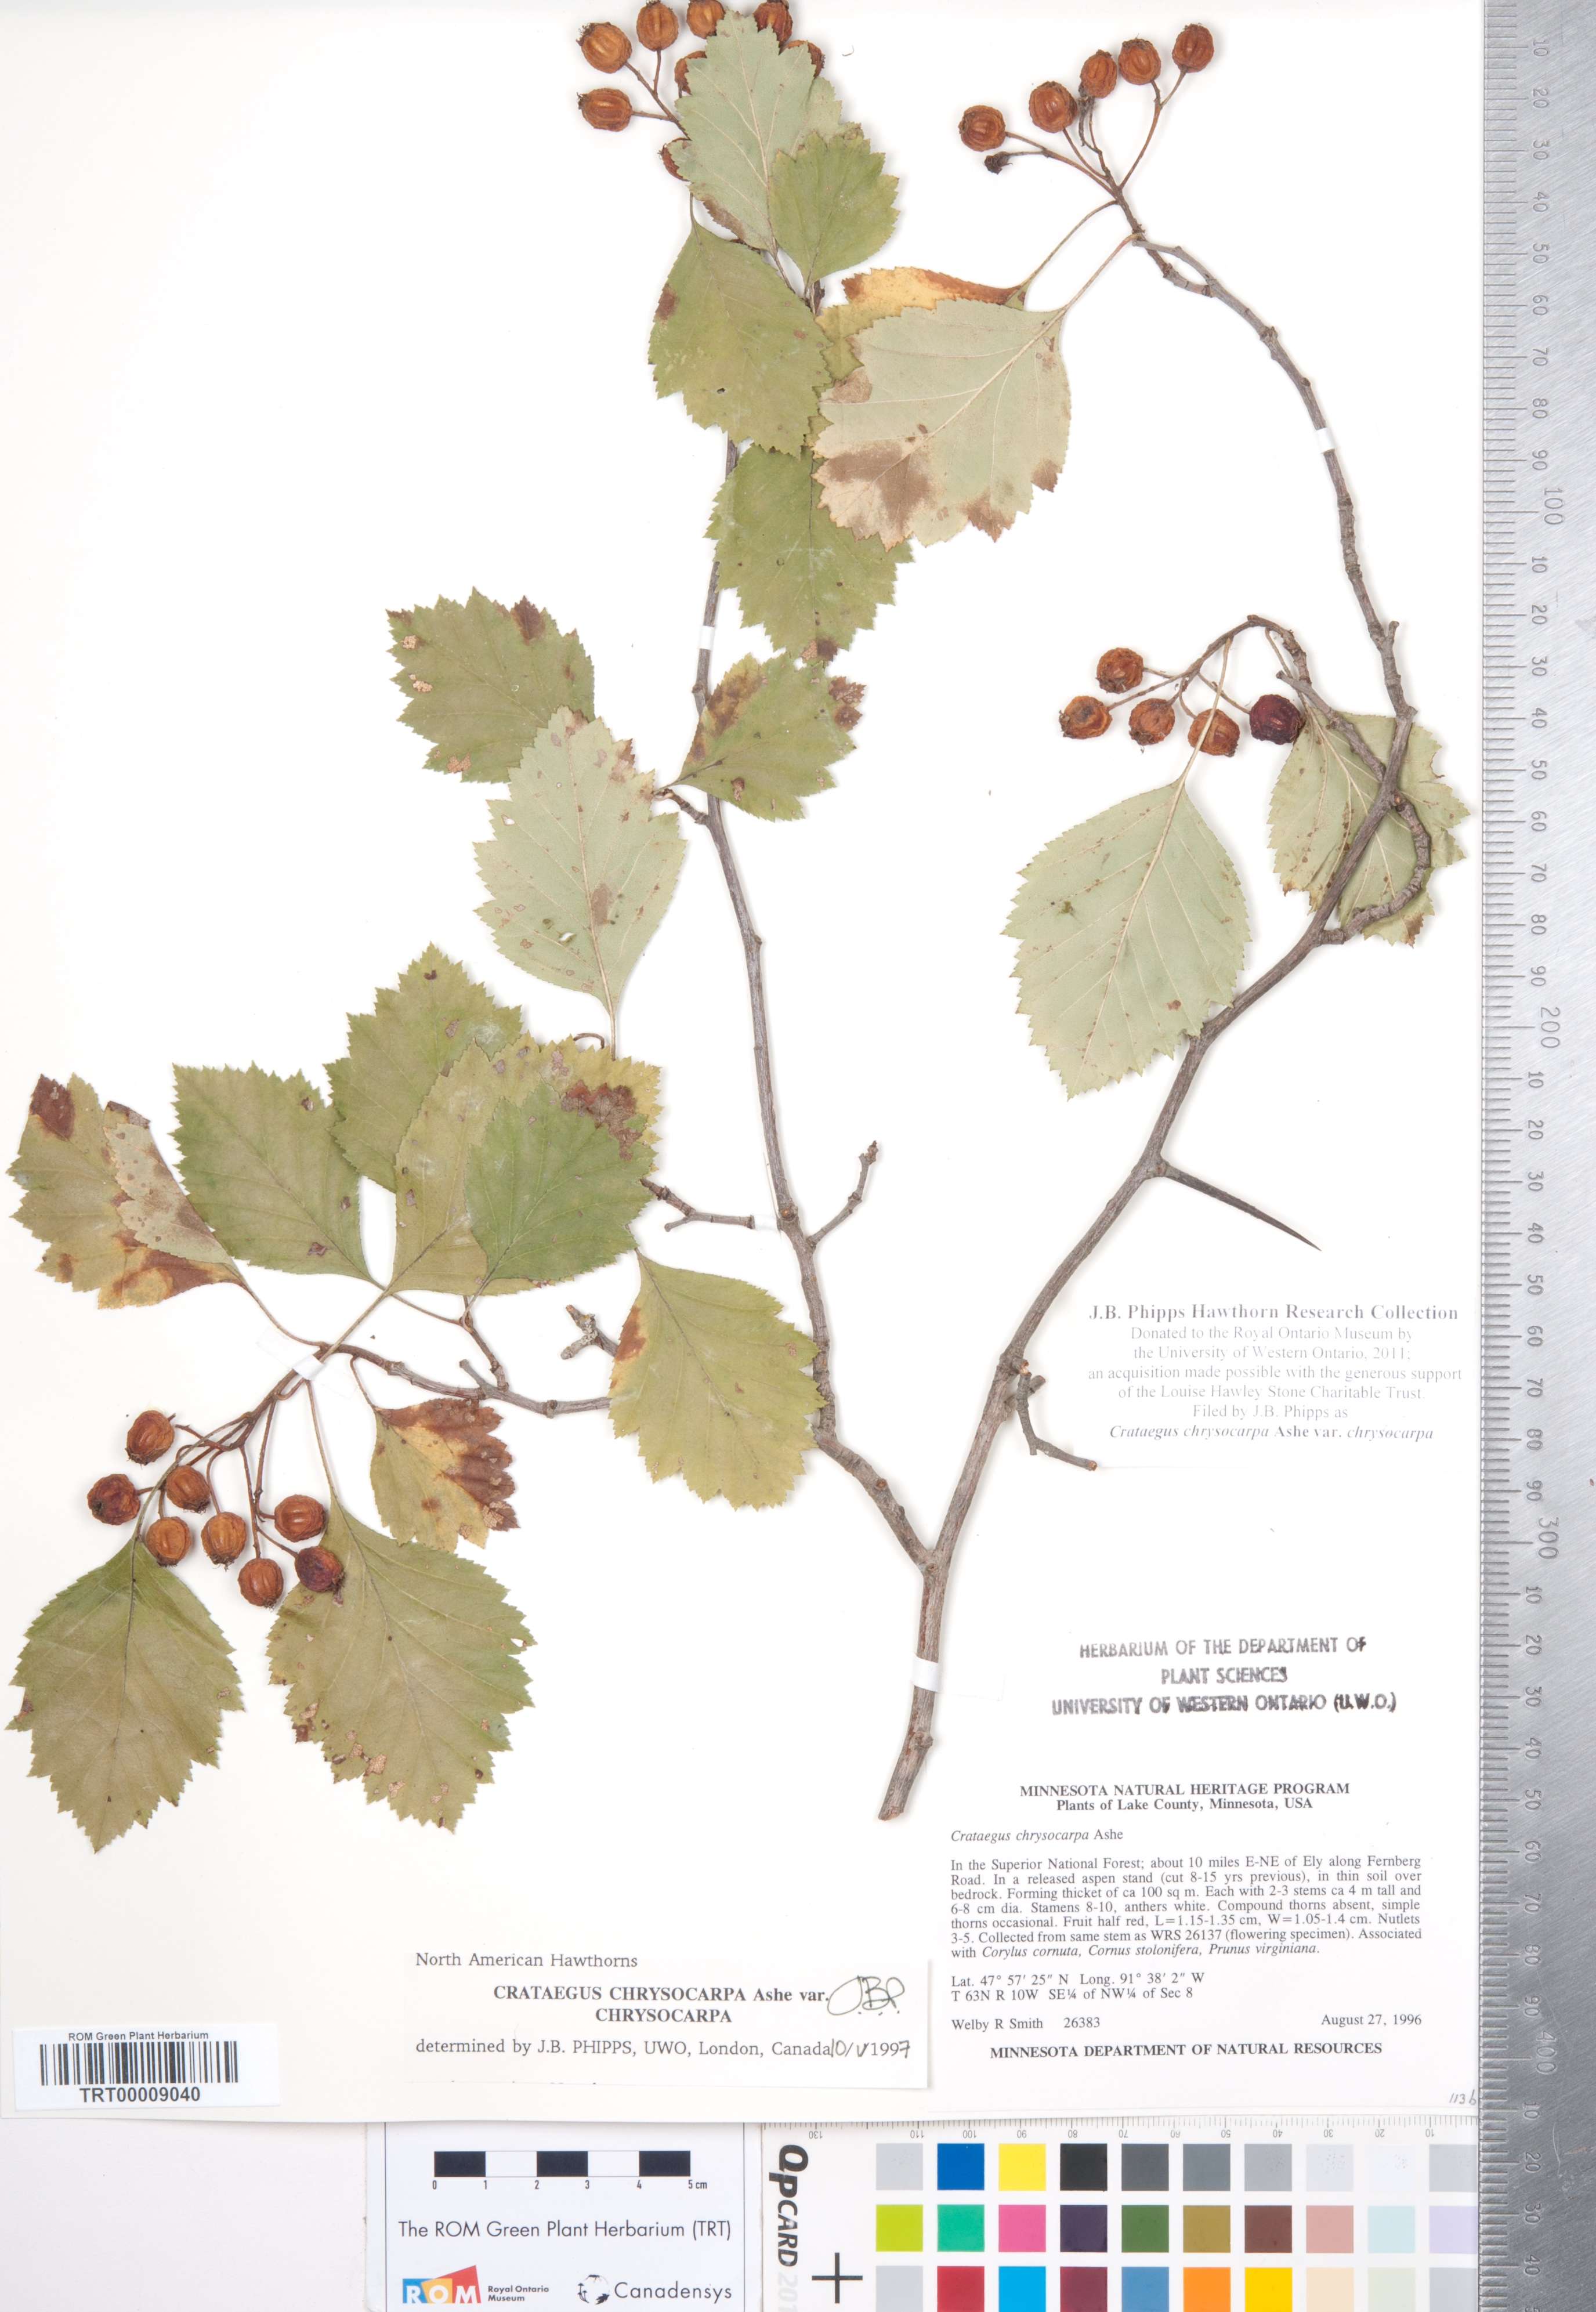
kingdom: Plantae
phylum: Tracheophyta
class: Magnoliopsida
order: Rosales
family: Rosaceae
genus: Crataegus
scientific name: Crataegus chrysocarpa
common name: Fire-berry hawthorn
